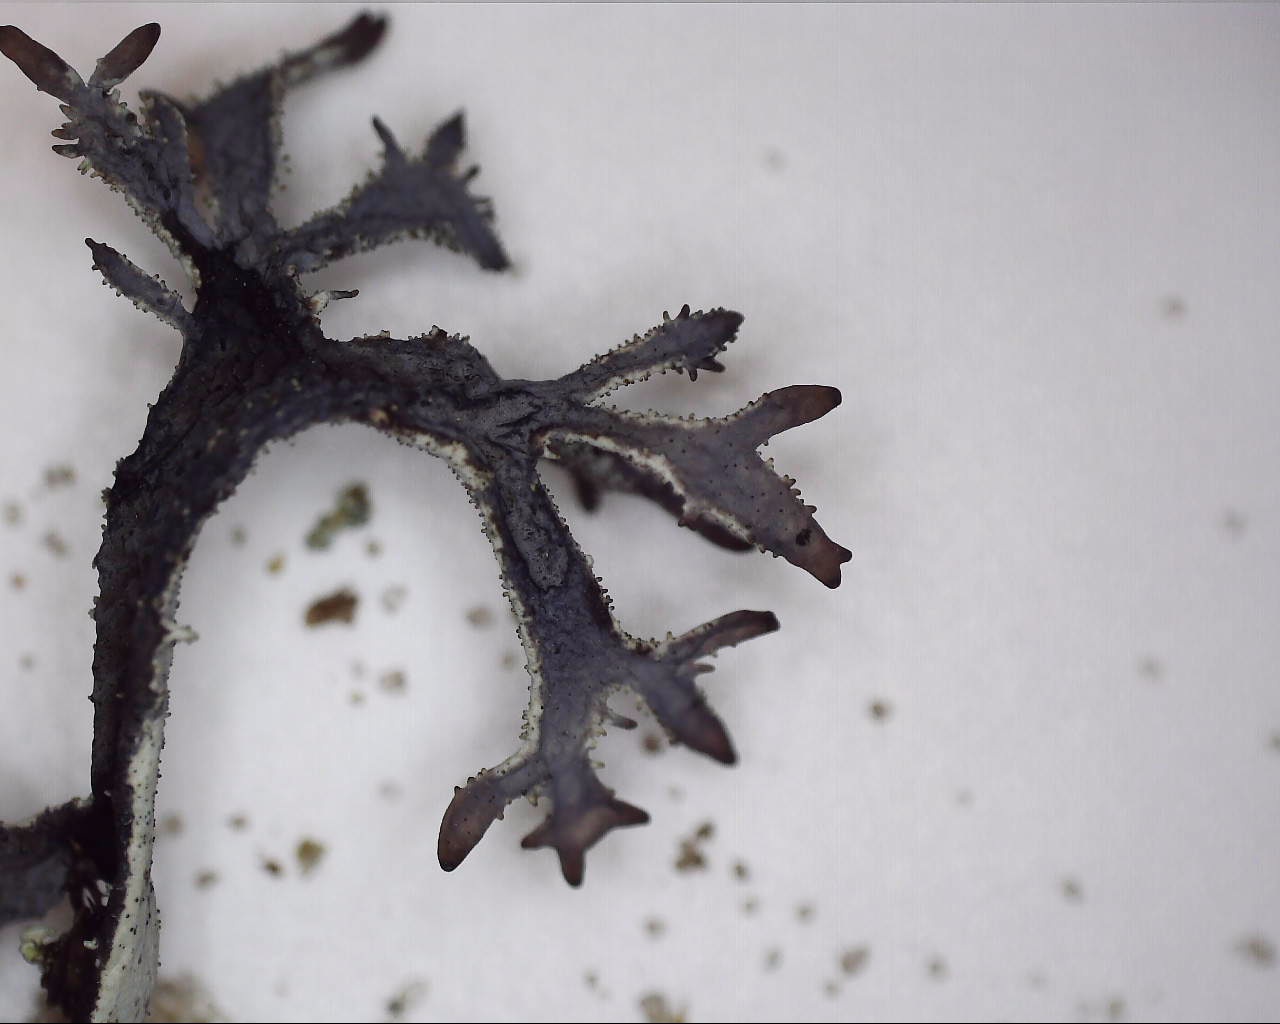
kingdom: Fungi
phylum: Ascomycota
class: Lecanoromycetes
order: Lecanorales
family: Parmeliaceae
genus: Pseudevernia
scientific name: Pseudevernia furfuracea
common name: grå fyrrelav
